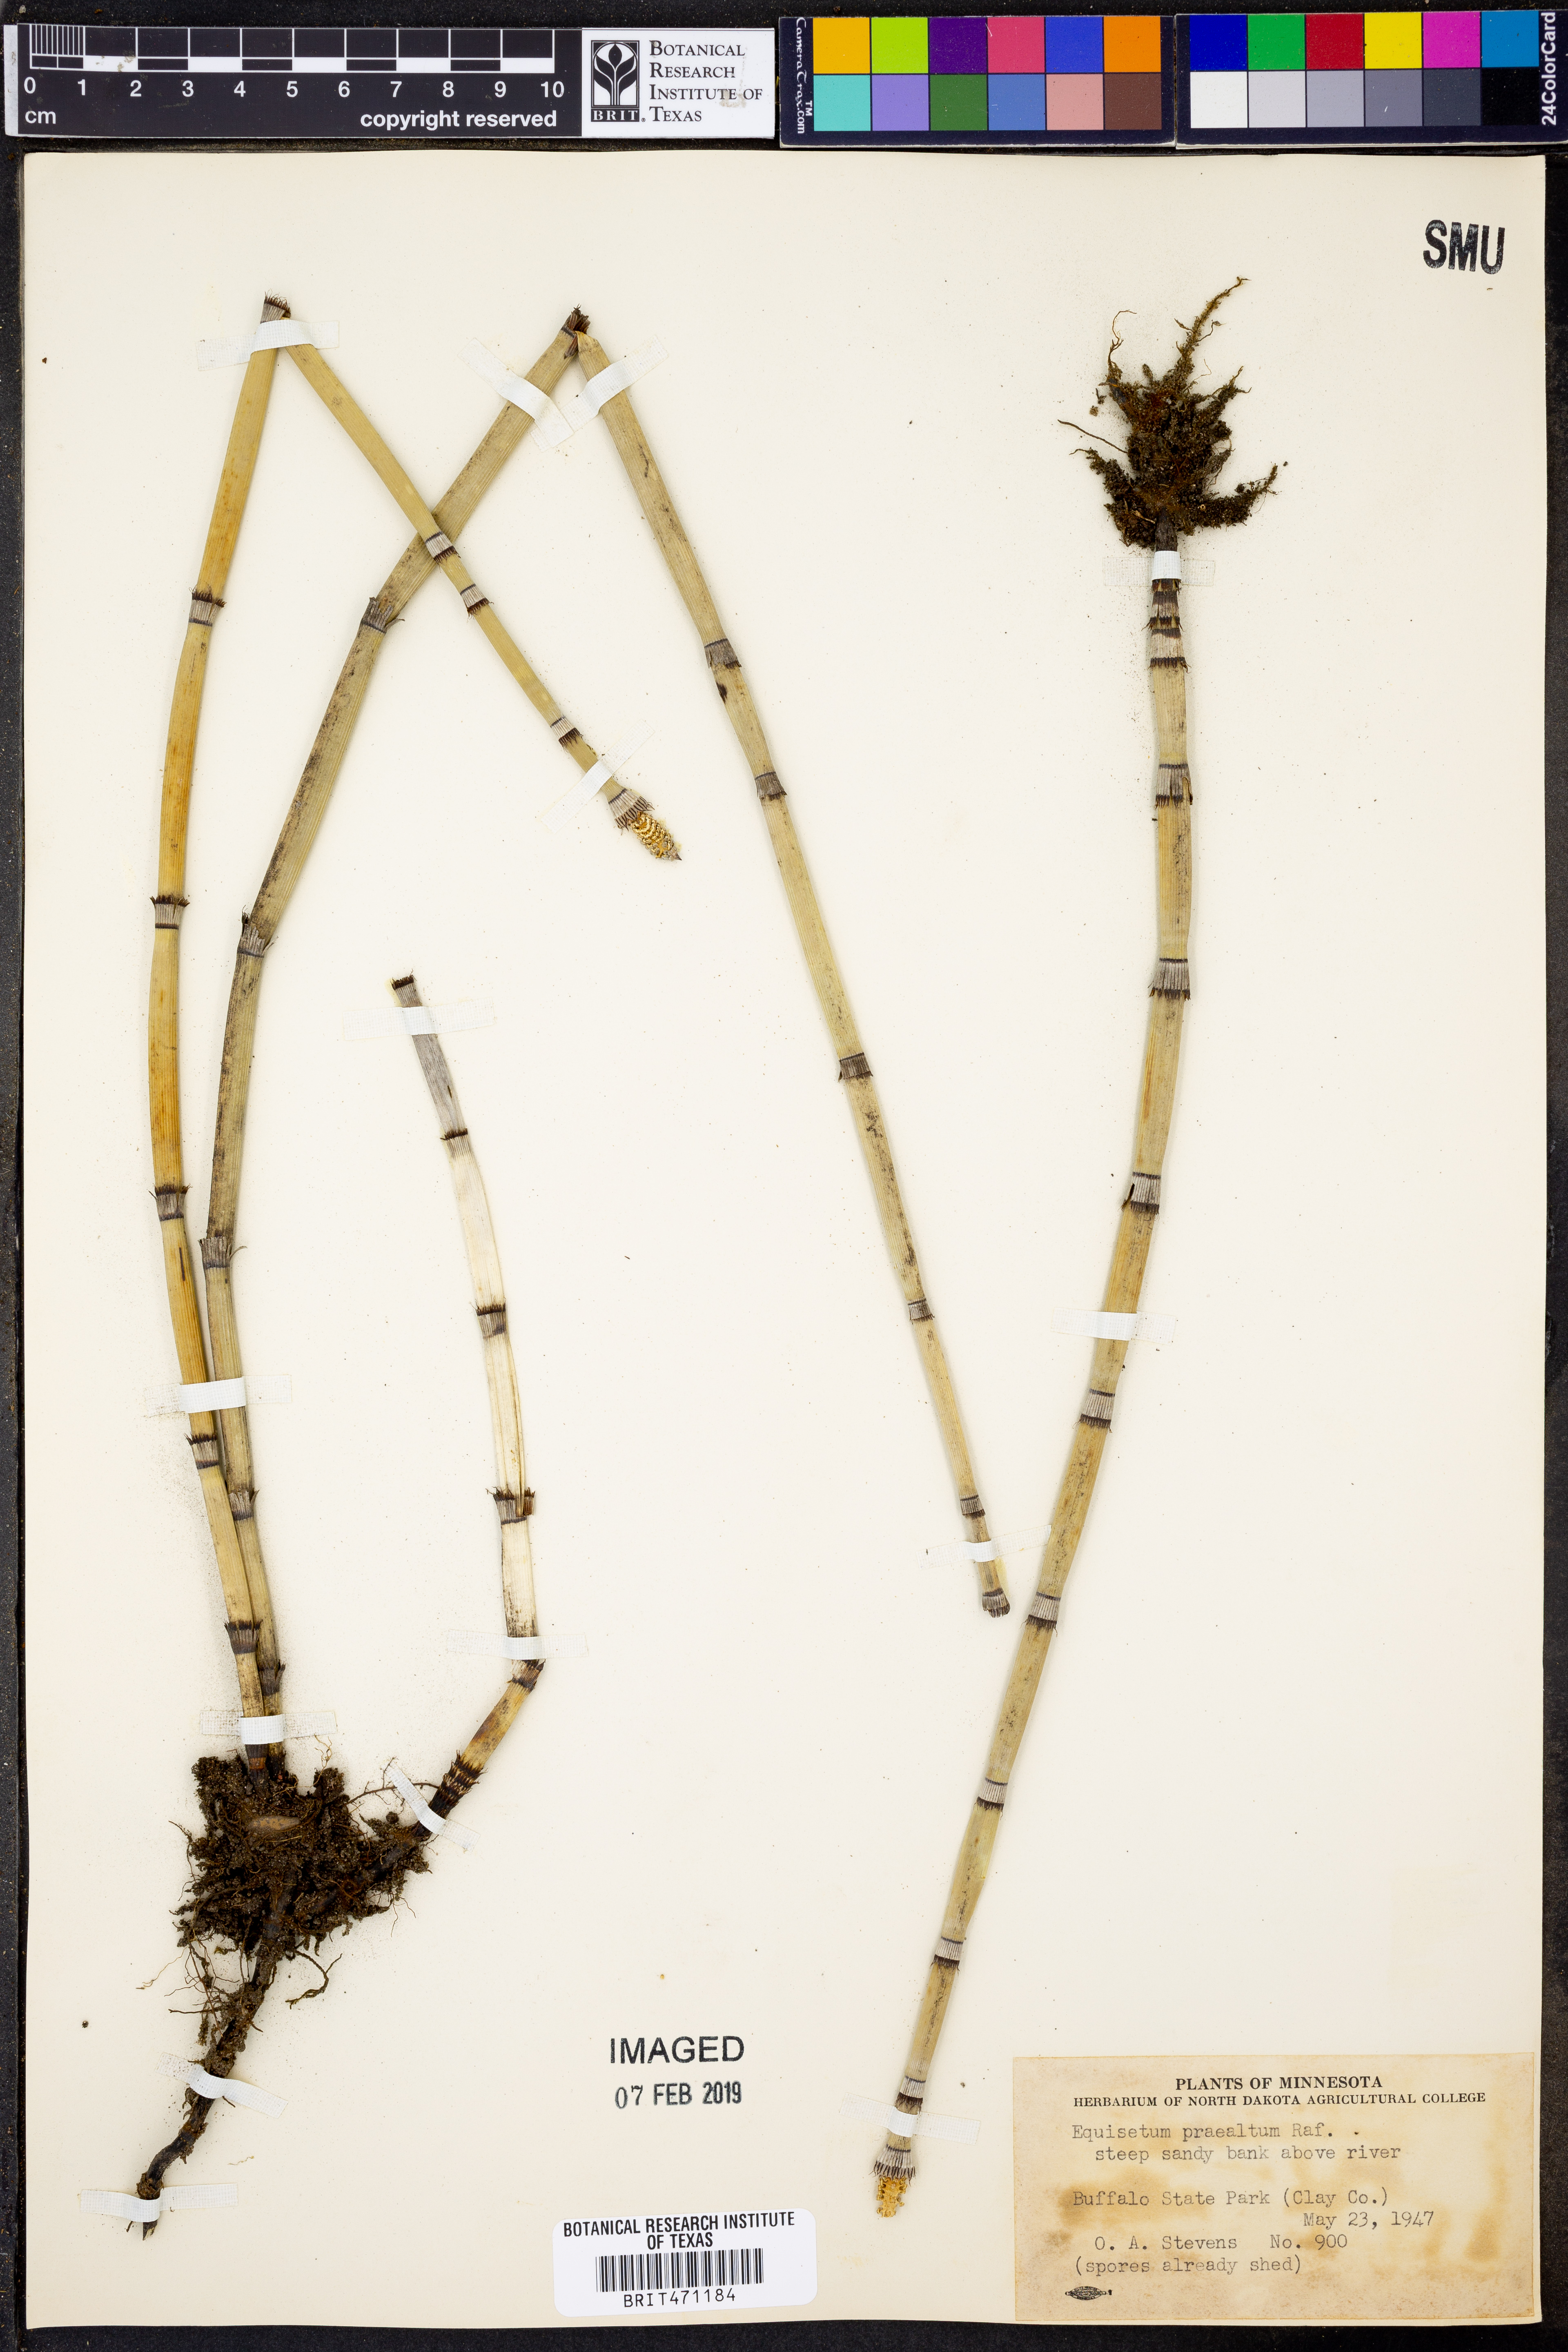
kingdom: Plantae
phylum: Tracheophyta
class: Polypodiopsida
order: Equisetales
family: Equisetaceae
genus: Equisetum
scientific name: Equisetum praealtum
